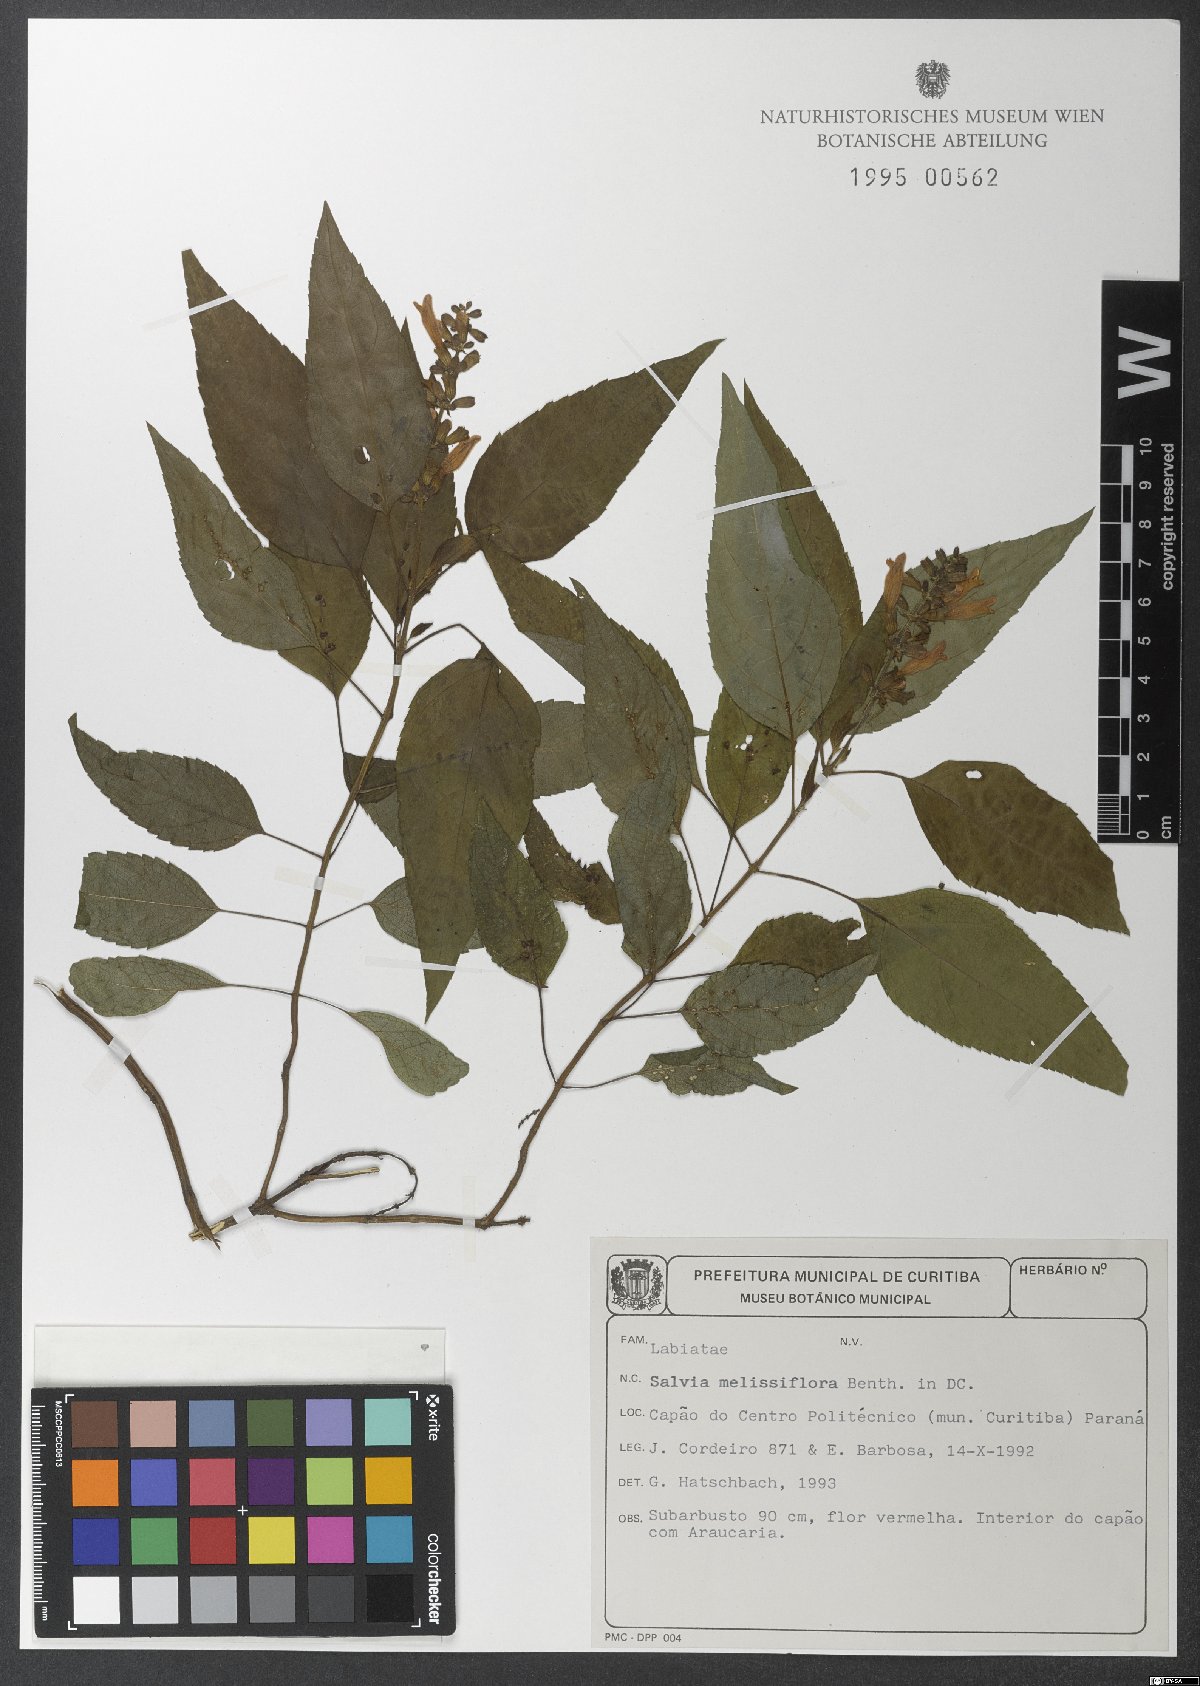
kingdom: Plantae
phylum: Tracheophyta
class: Magnoliopsida
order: Lamiales
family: Lamiaceae
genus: Salvia
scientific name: Salvia melissiflora
